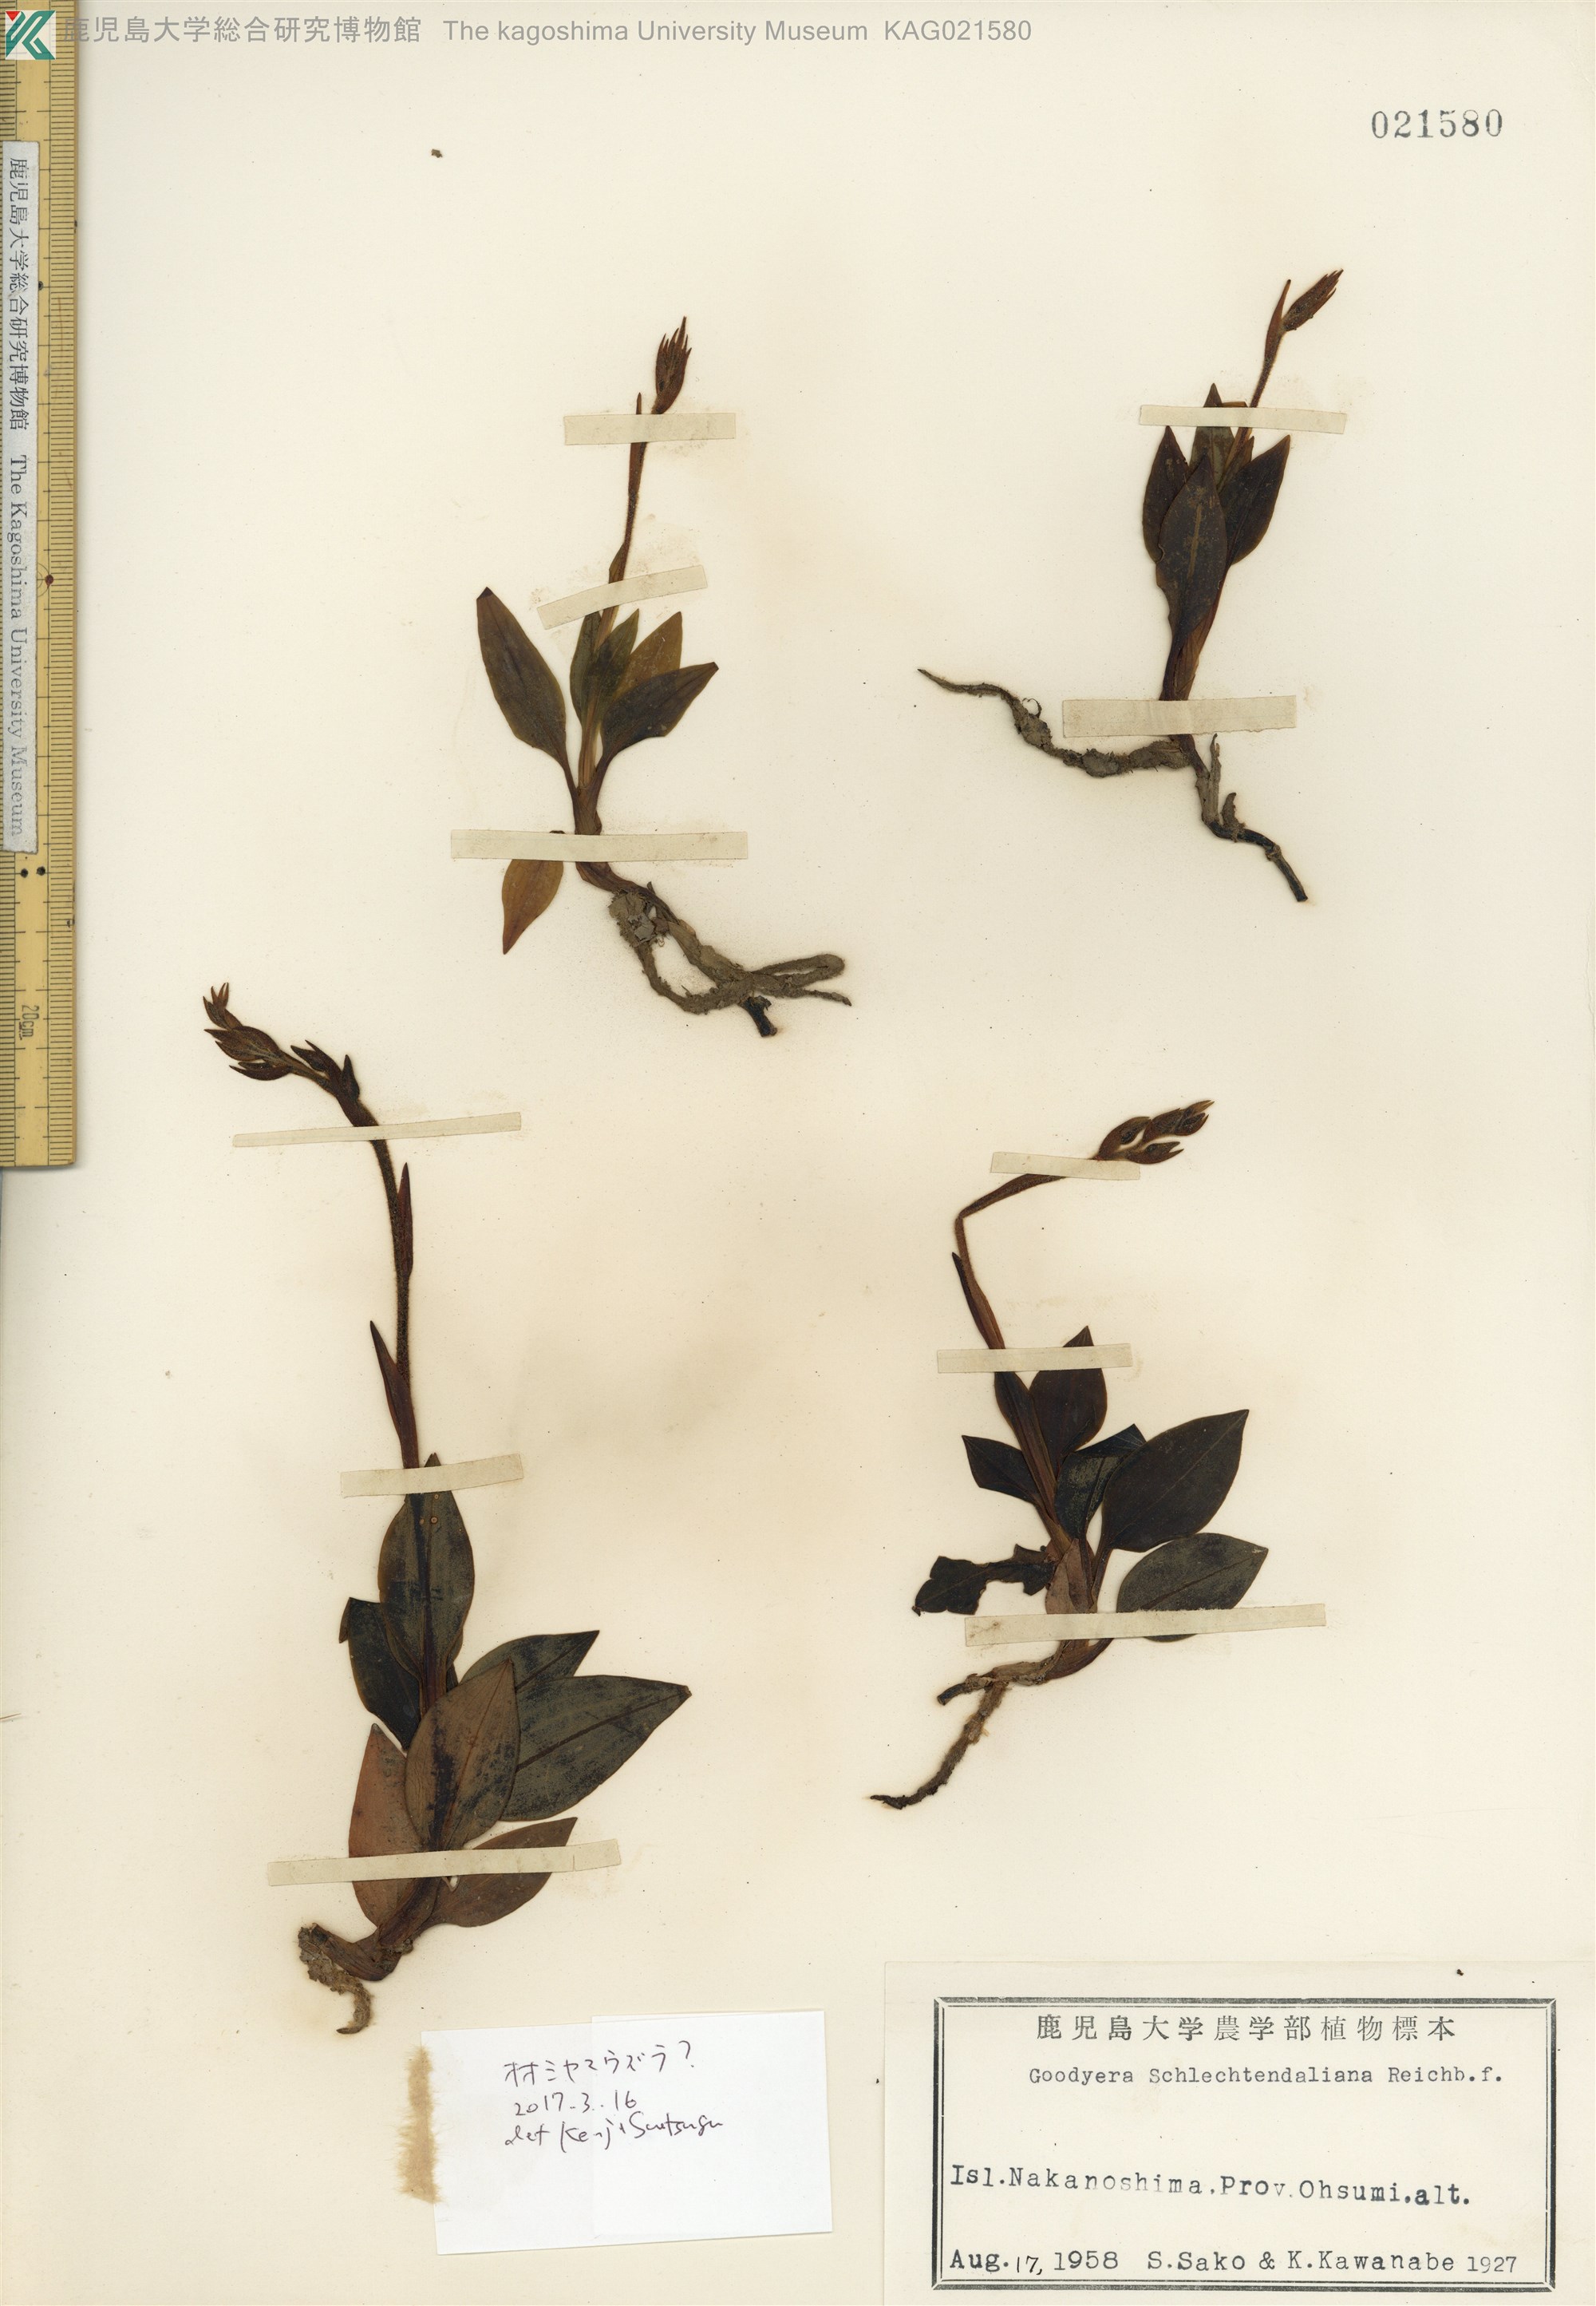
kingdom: Plantae
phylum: Tracheophyta
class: Liliopsida
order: Asparagales
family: Orchidaceae
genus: Goodyera
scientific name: Goodyera schlechtendaliana
